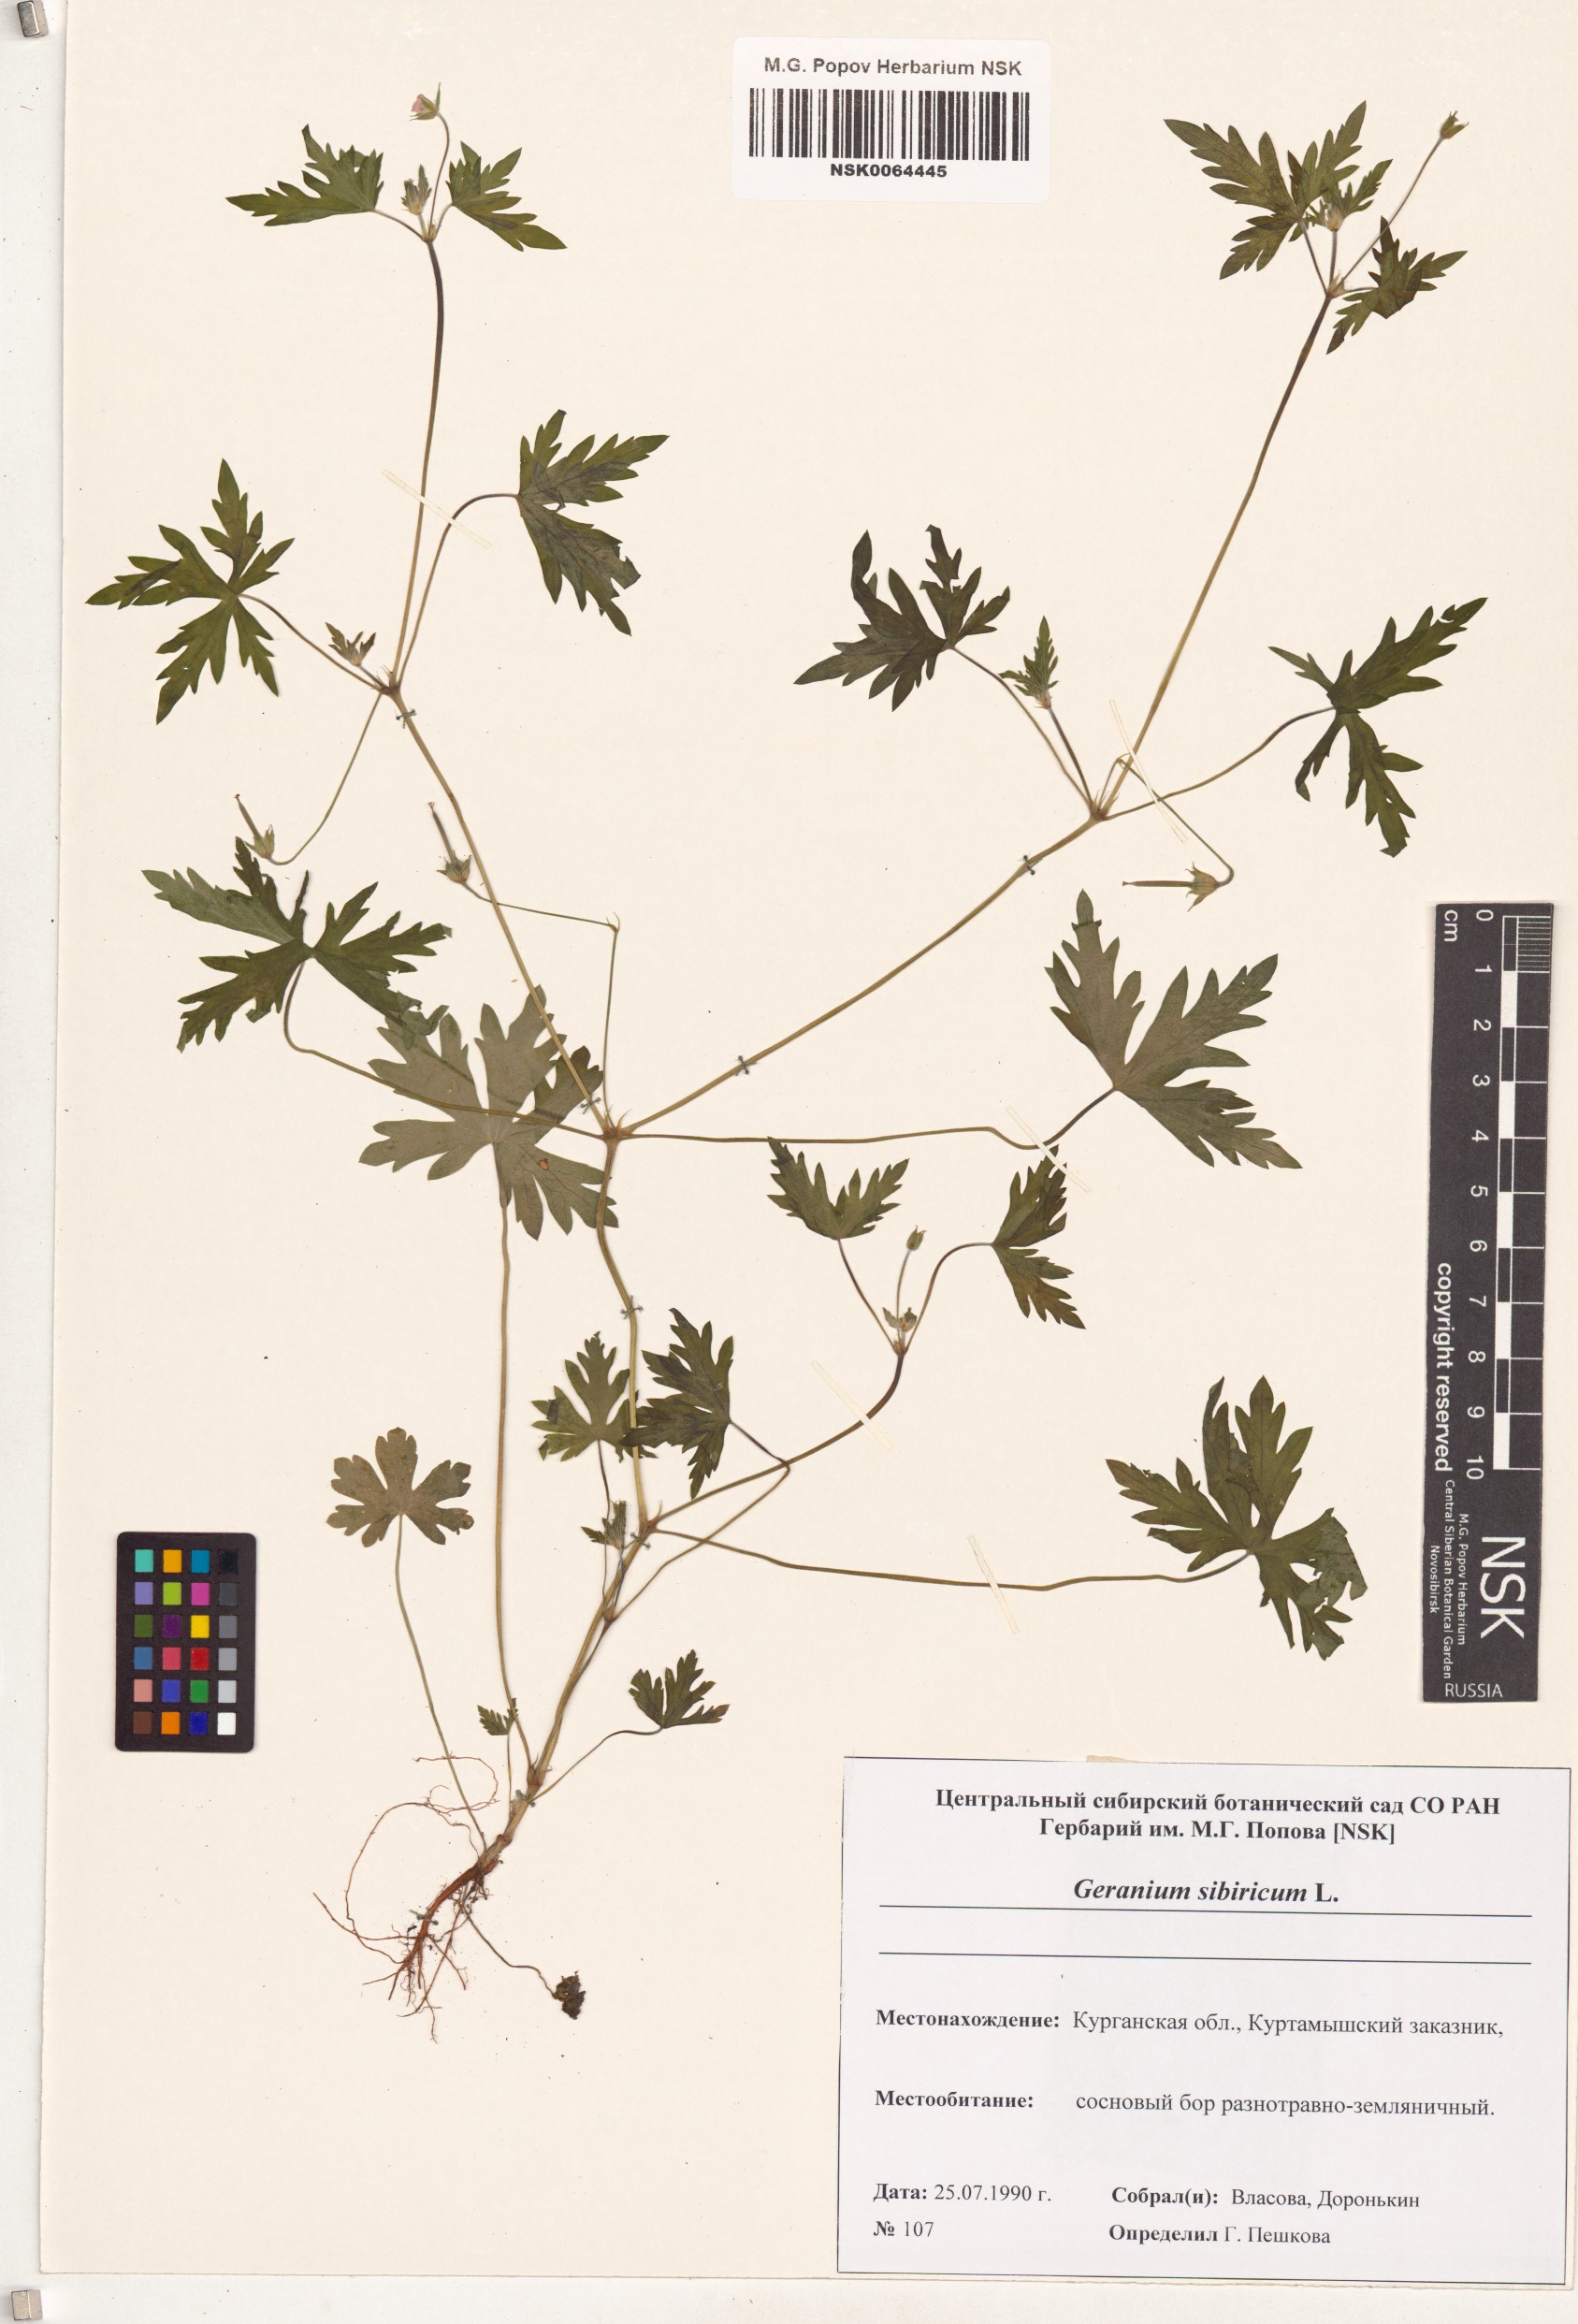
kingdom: Plantae
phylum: Tracheophyta
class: Magnoliopsida
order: Geraniales
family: Geraniaceae
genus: Geranium
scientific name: Geranium sibiricum
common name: Siberian crane's-bill
